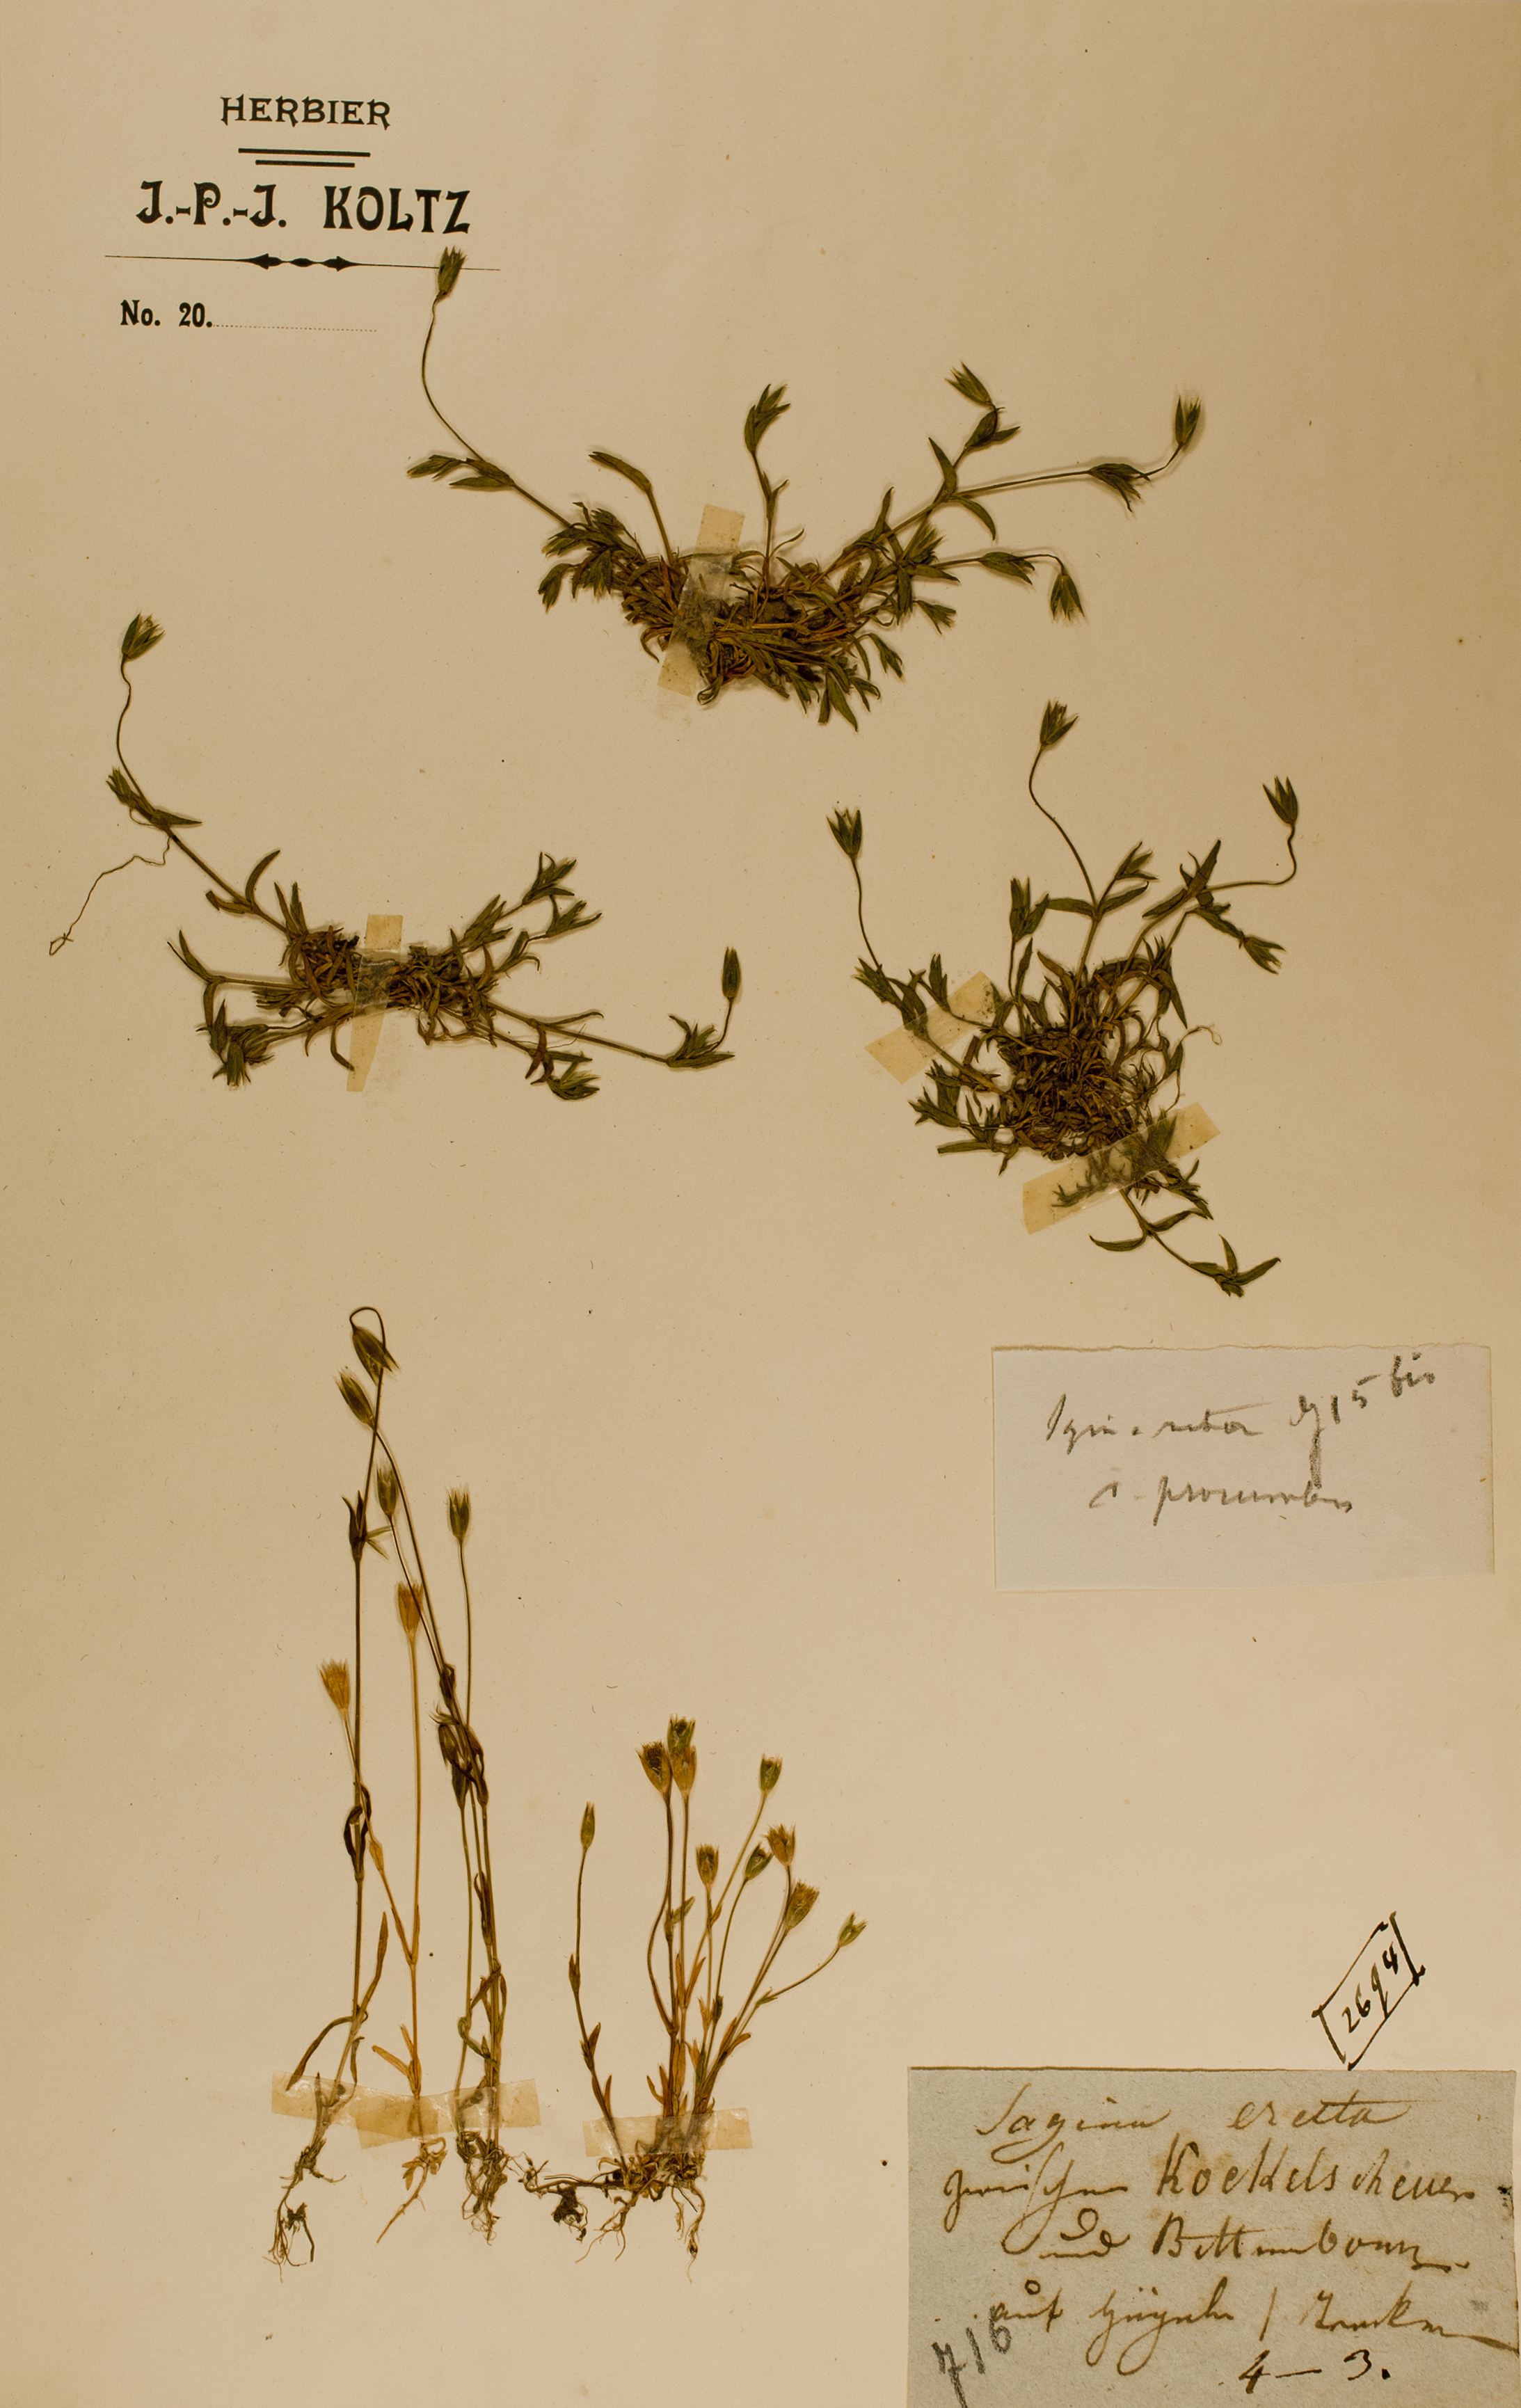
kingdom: Plantae
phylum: Tracheophyta
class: Magnoliopsida
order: Caryophyllales
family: Caryophyllaceae
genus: Moenchia
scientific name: Moenchia erecta
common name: Upright chickweed
